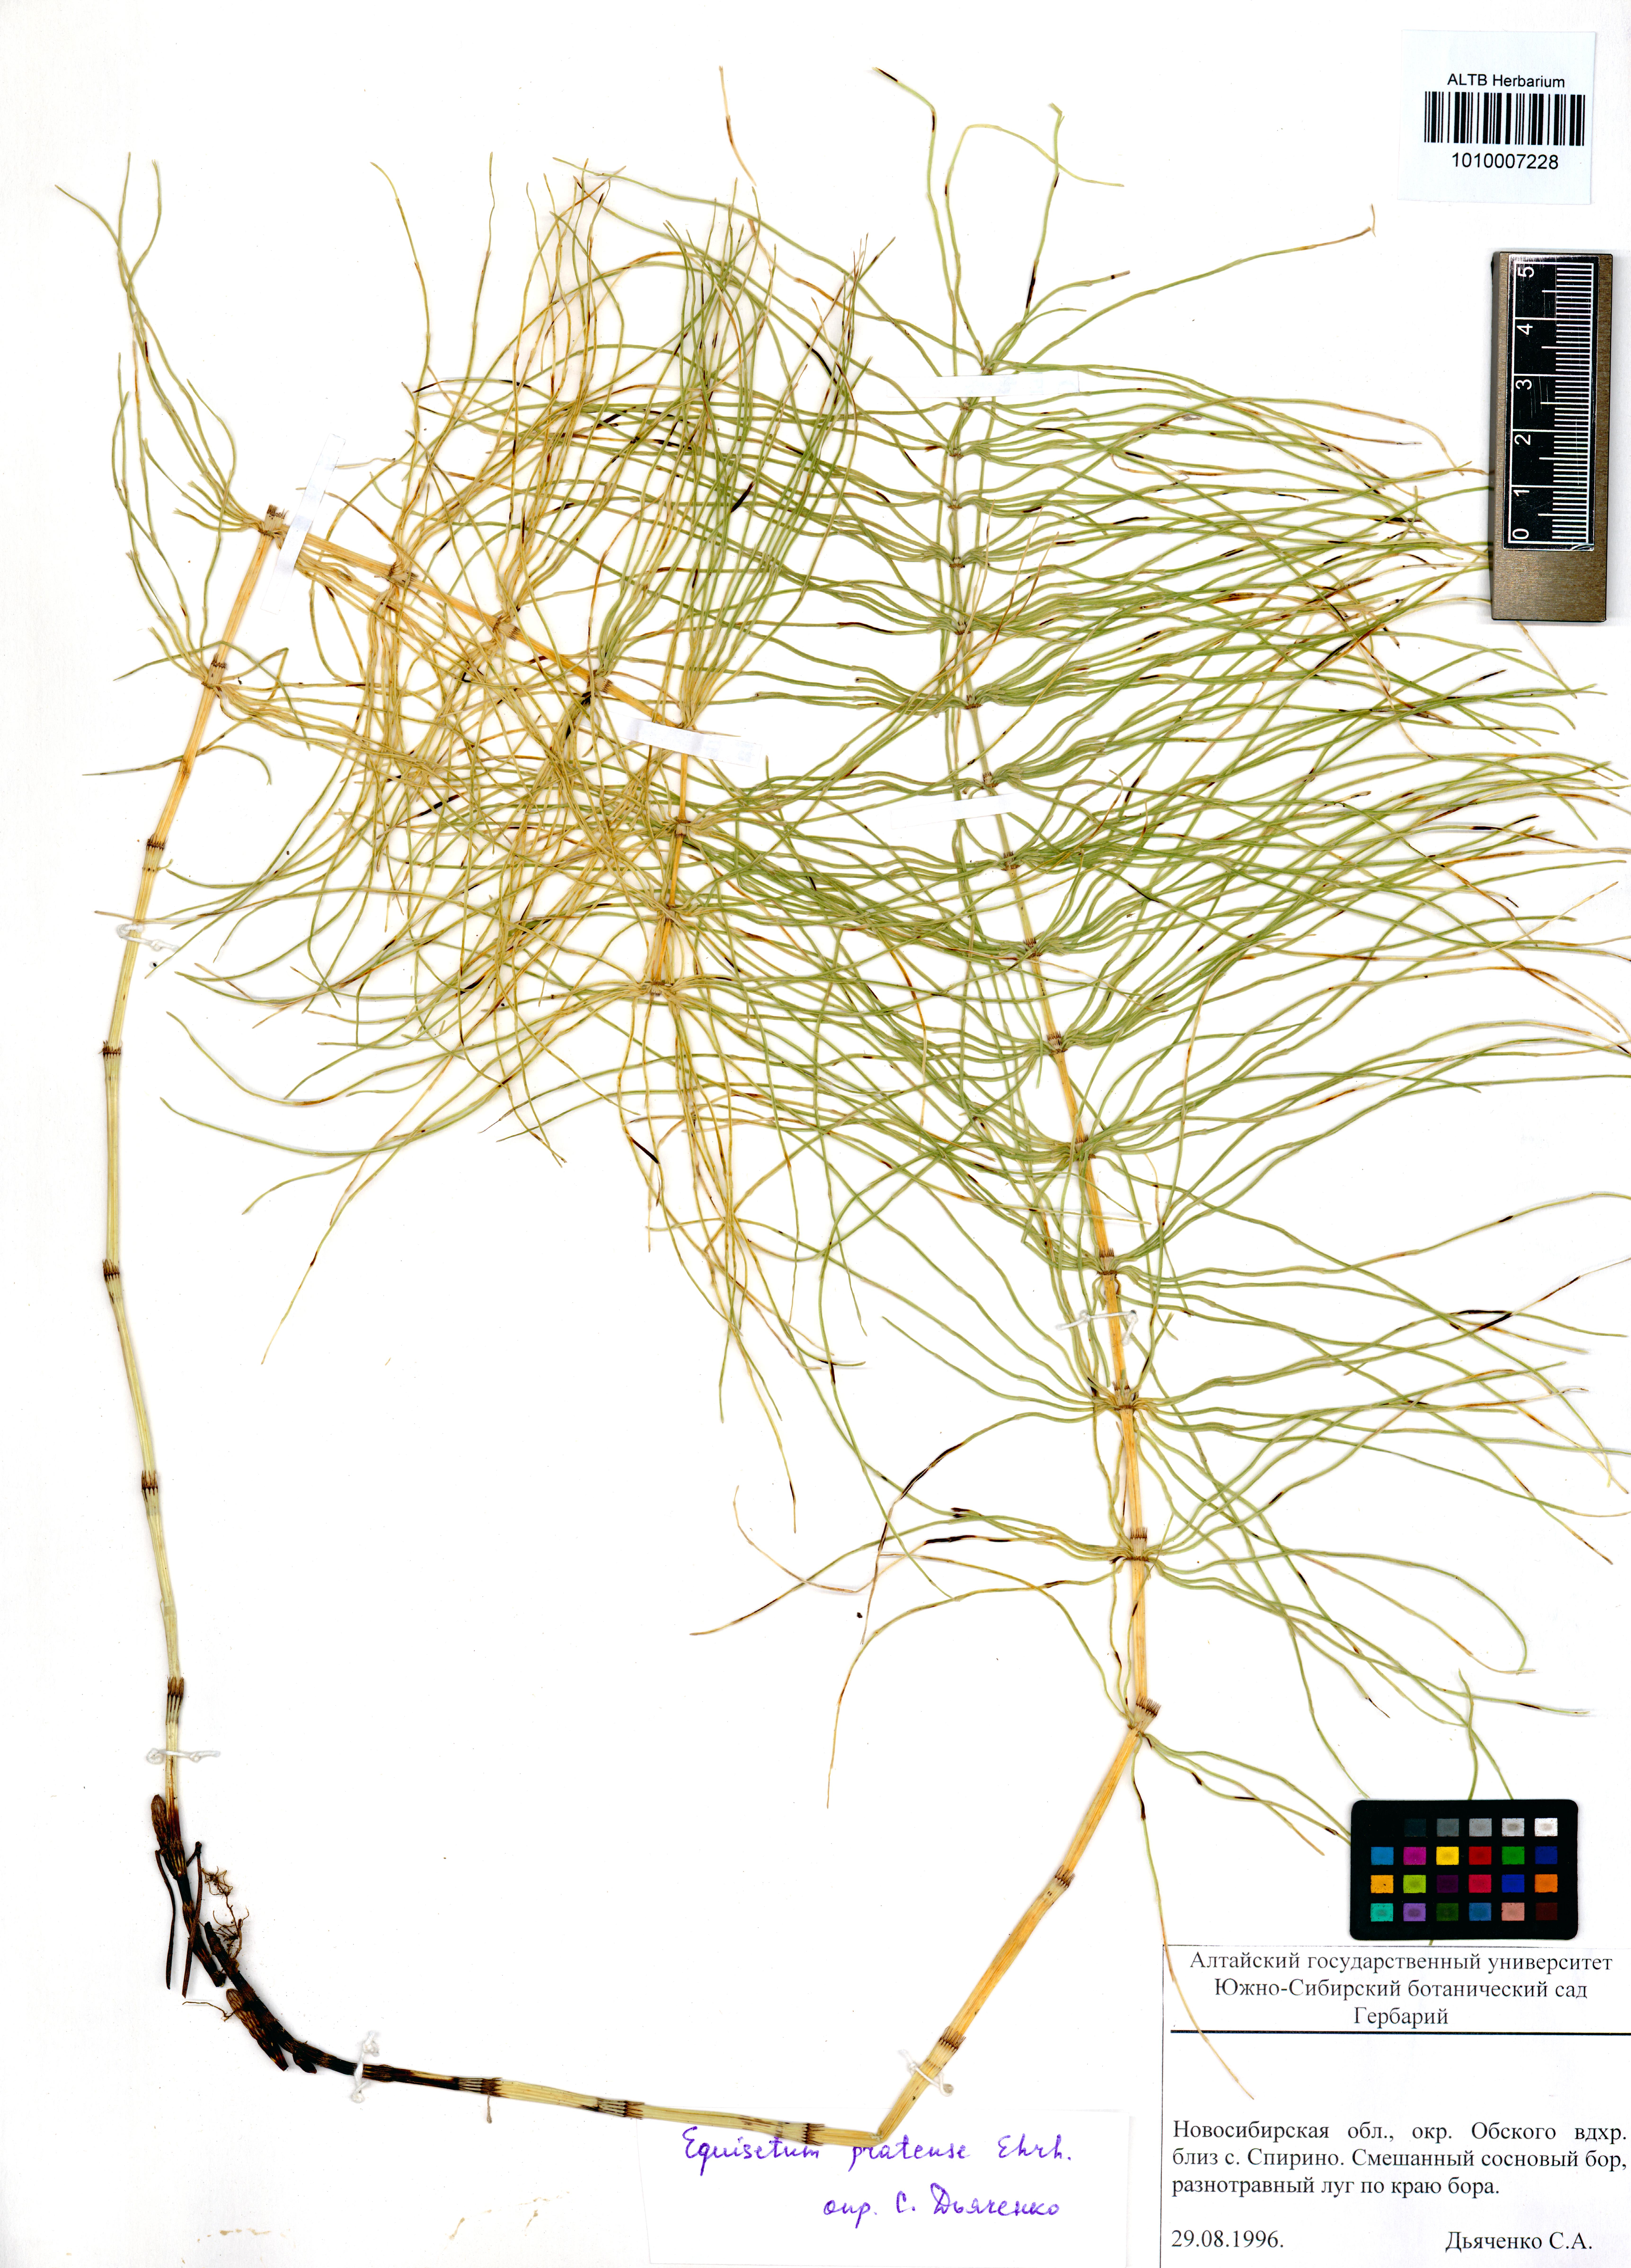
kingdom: Plantae
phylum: Tracheophyta
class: Polypodiopsida
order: Equisetales
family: Equisetaceae
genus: Equisetum
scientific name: Equisetum pratense
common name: Meadow horsetail
